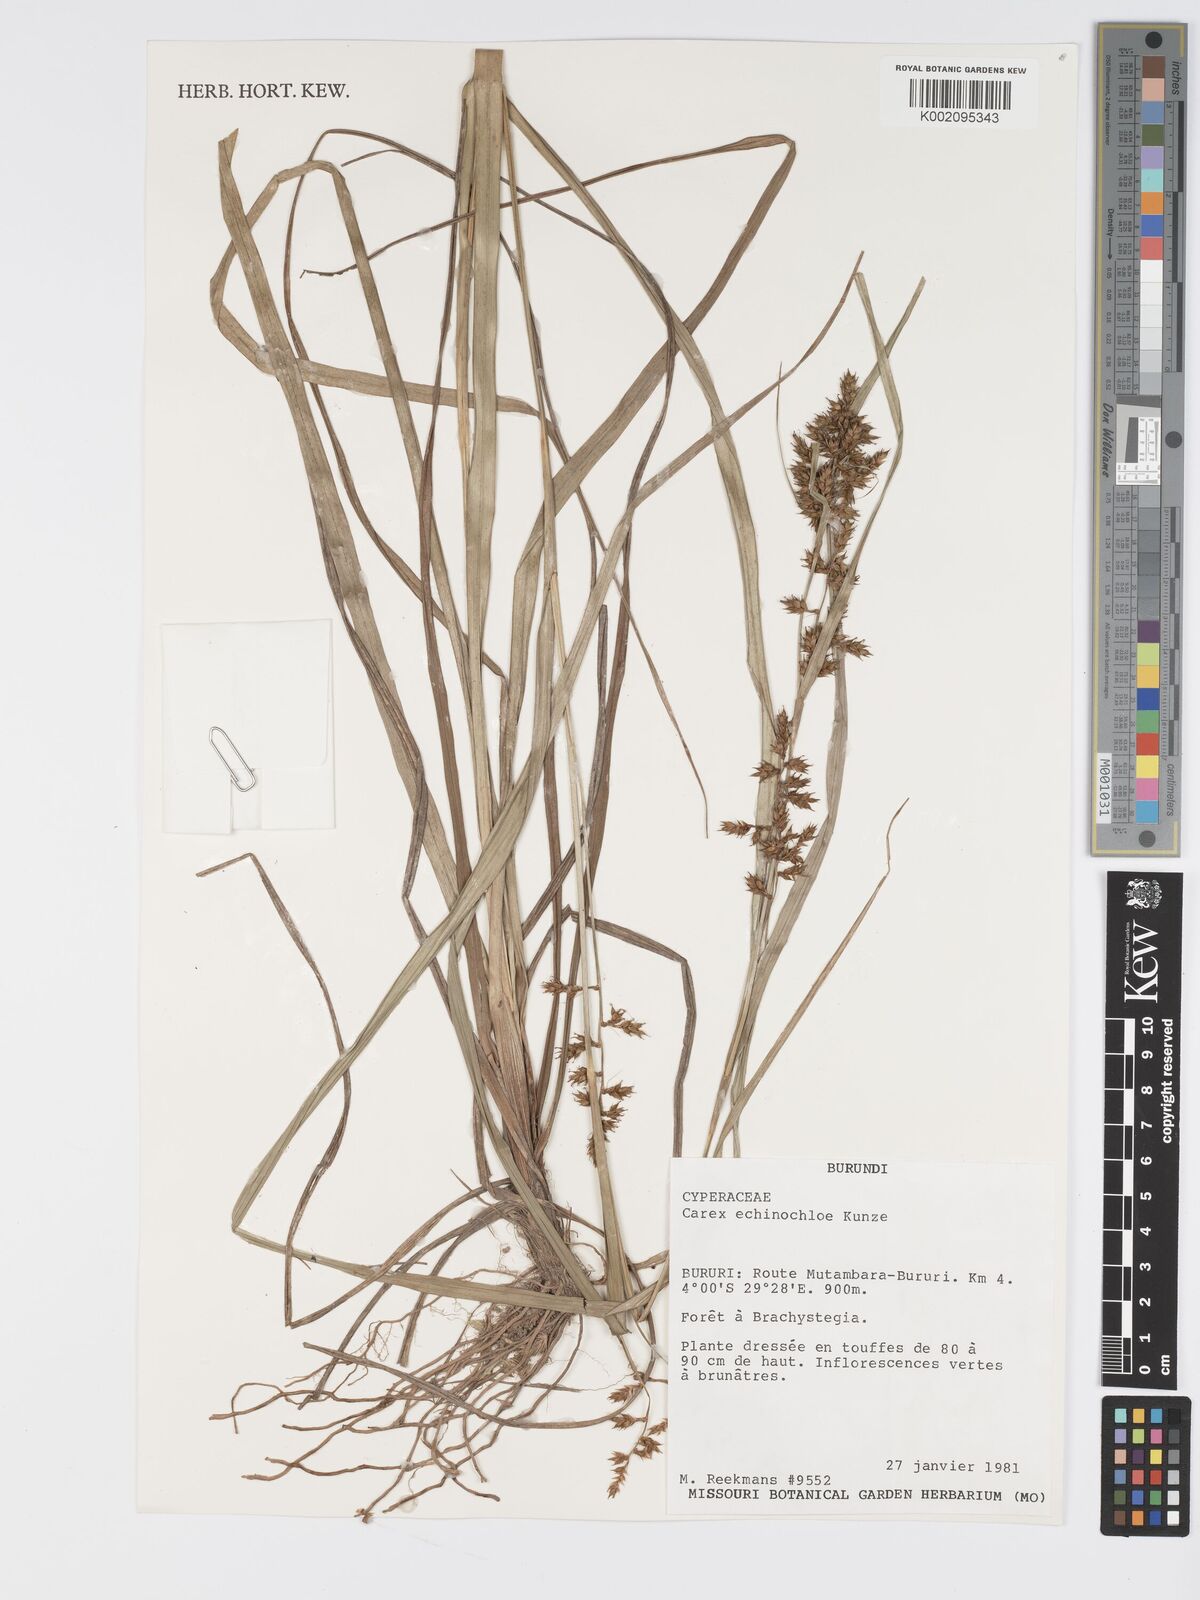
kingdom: Plantae
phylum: Tracheophyta
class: Liliopsida
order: Poales
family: Cyperaceae
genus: Carex
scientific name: Carex echinochloe
